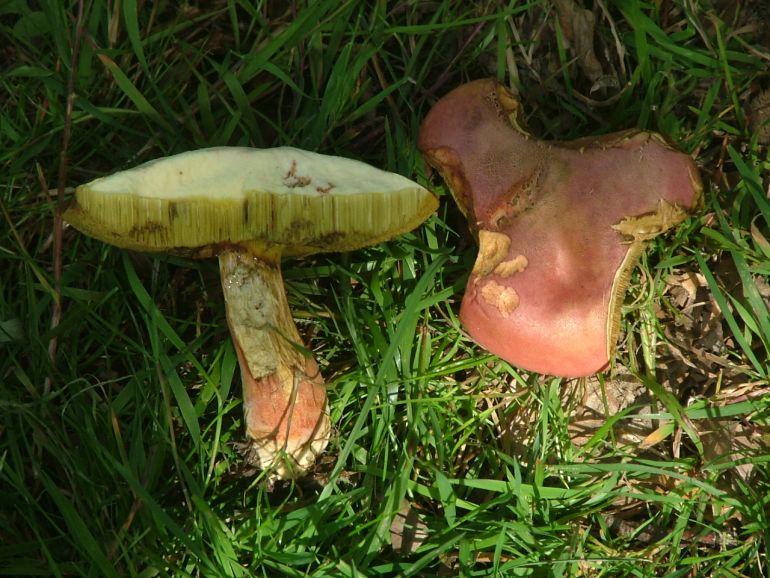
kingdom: Fungi
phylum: Basidiomycota
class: Agaricomycetes
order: Boletales
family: Boletaceae
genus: Hortiboletus
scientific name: Hortiboletus rubellus
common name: blodrød rørhat
